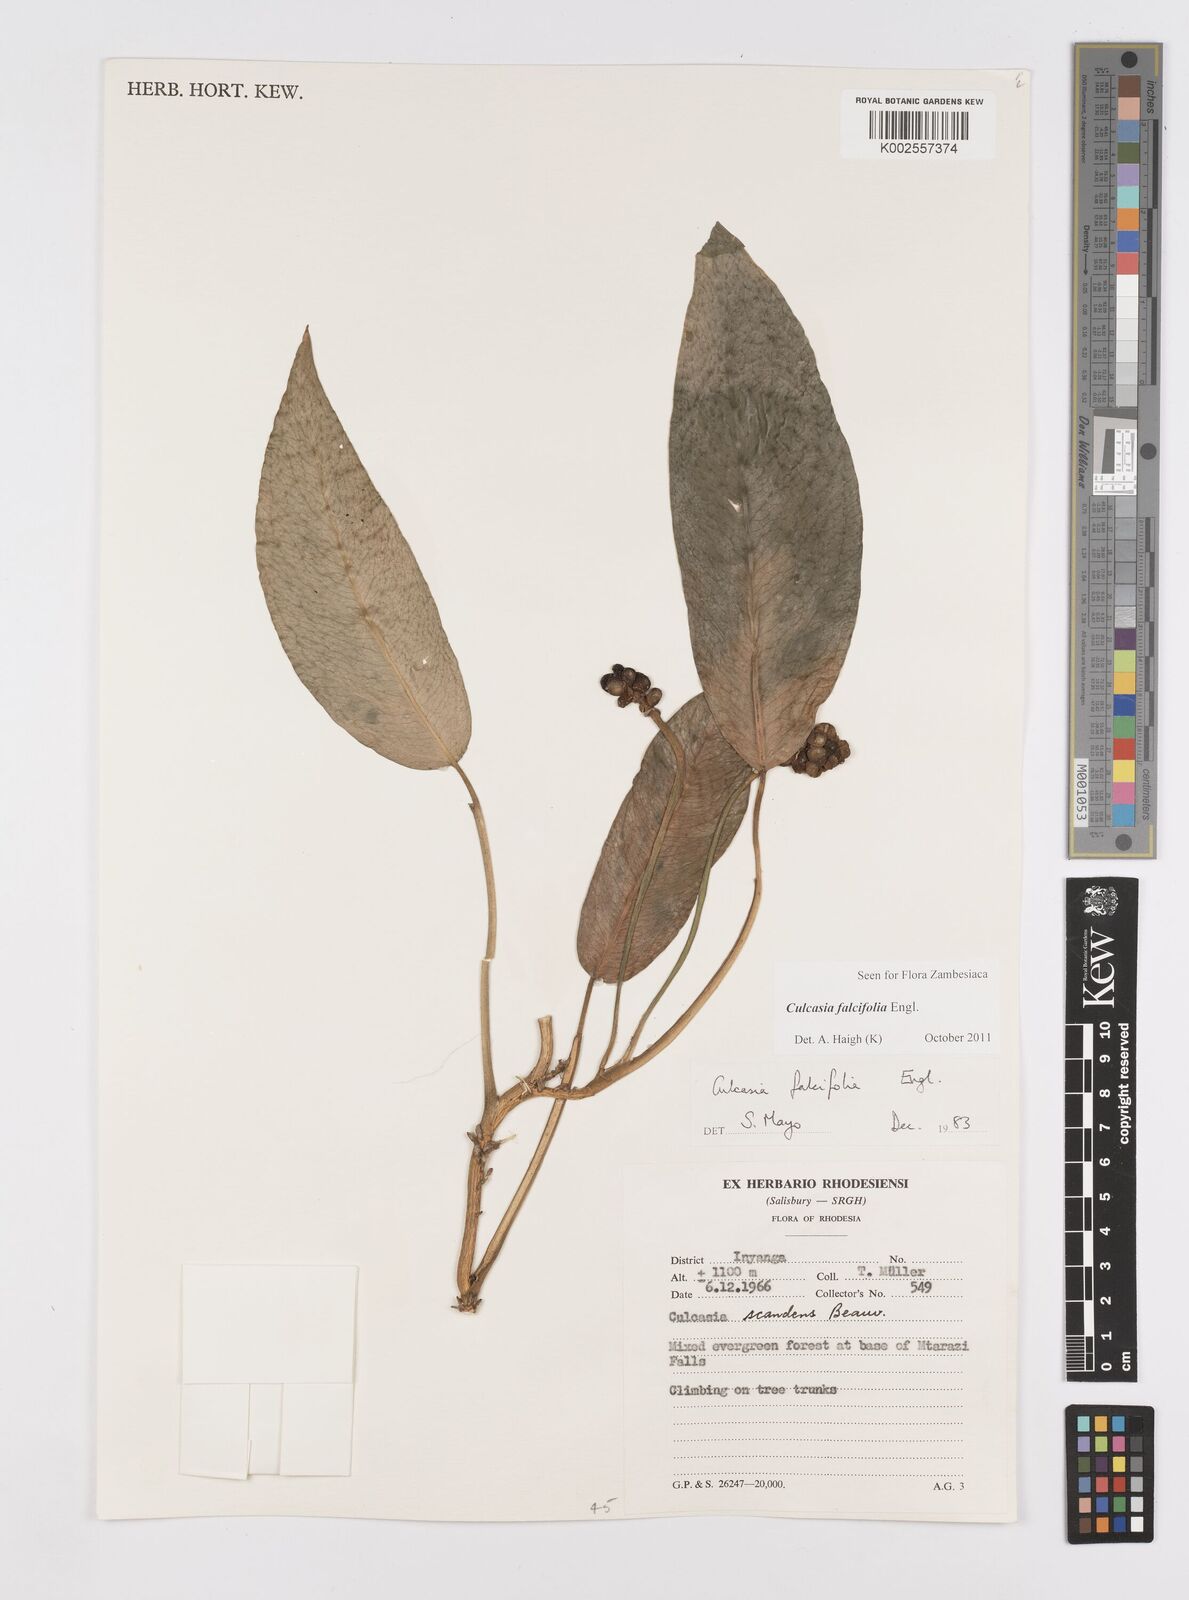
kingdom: Plantae
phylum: Tracheophyta
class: Liliopsida
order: Alismatales
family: Araceae
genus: Culcasia
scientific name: Culcasia falcifolia
